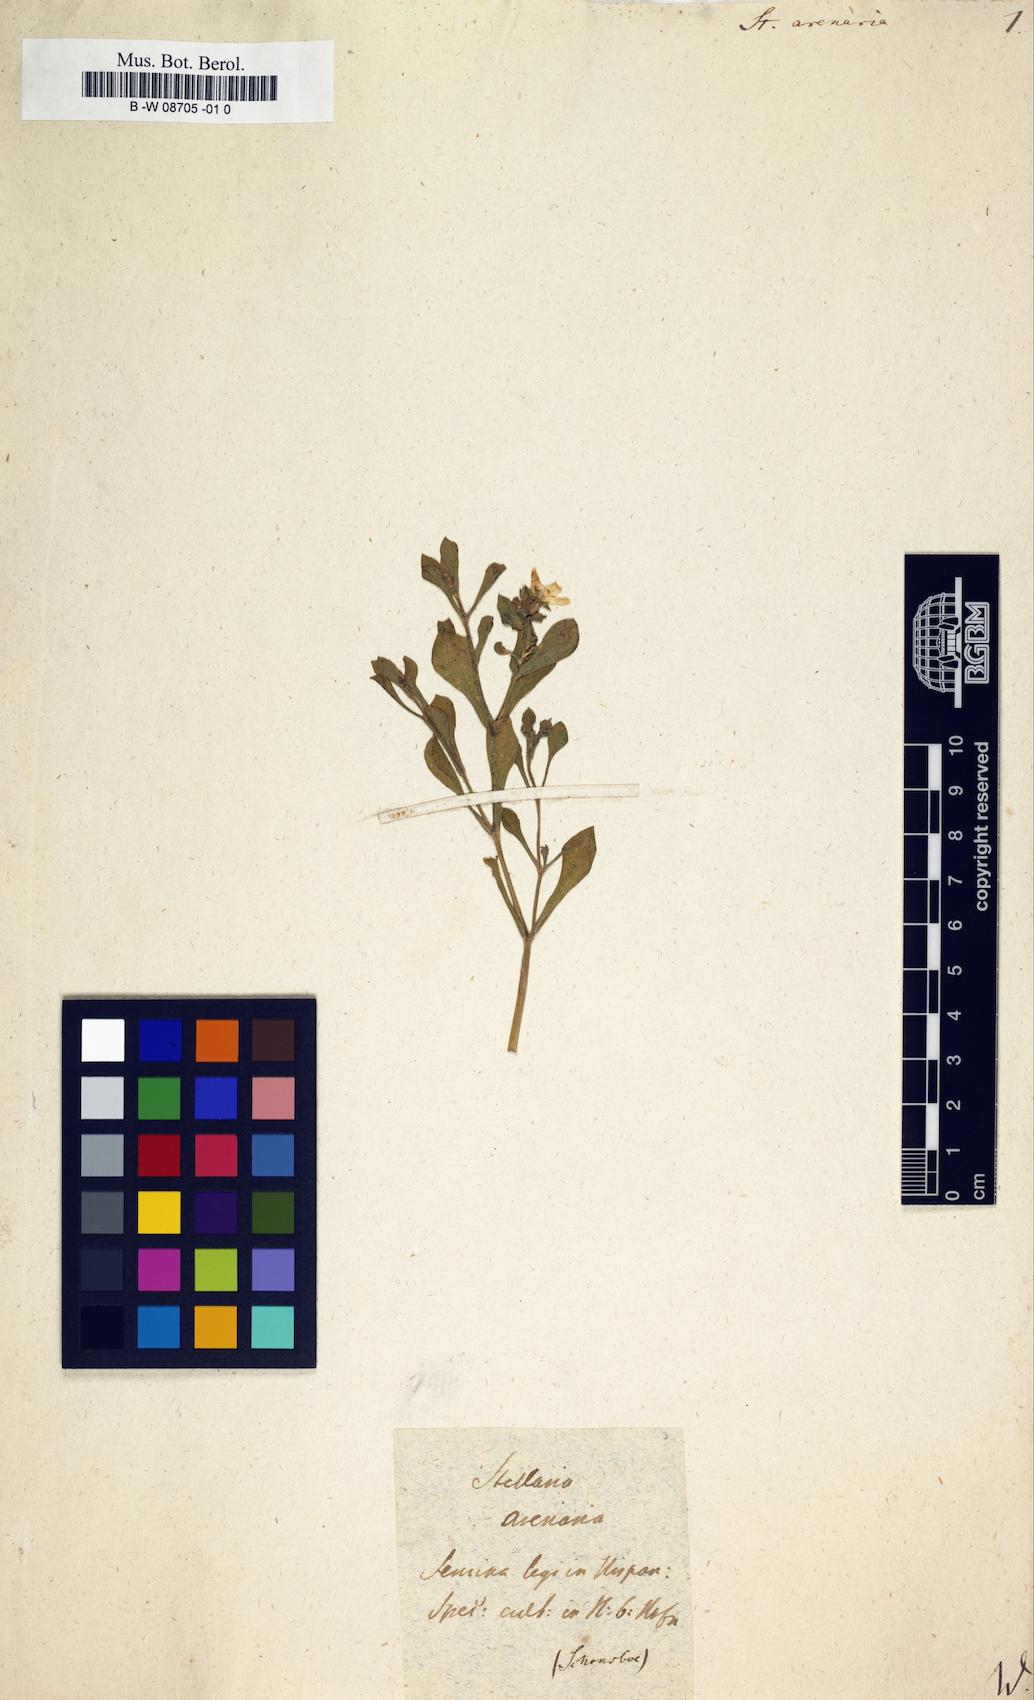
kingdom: Plantae
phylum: Tracheophyta
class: Magnoliopsida
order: Caryophyllales
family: Caryophyllaceae
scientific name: Caryophyllaceae
